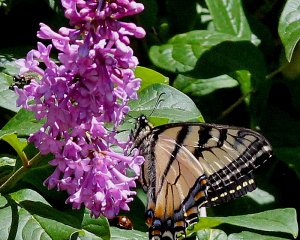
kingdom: Animalia
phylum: Arthropoda
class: Insecta
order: Lepidoptera
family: Papilionidae
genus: Pterourus
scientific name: Pterourus canadensis
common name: Canadian Tiger Swallowtail
